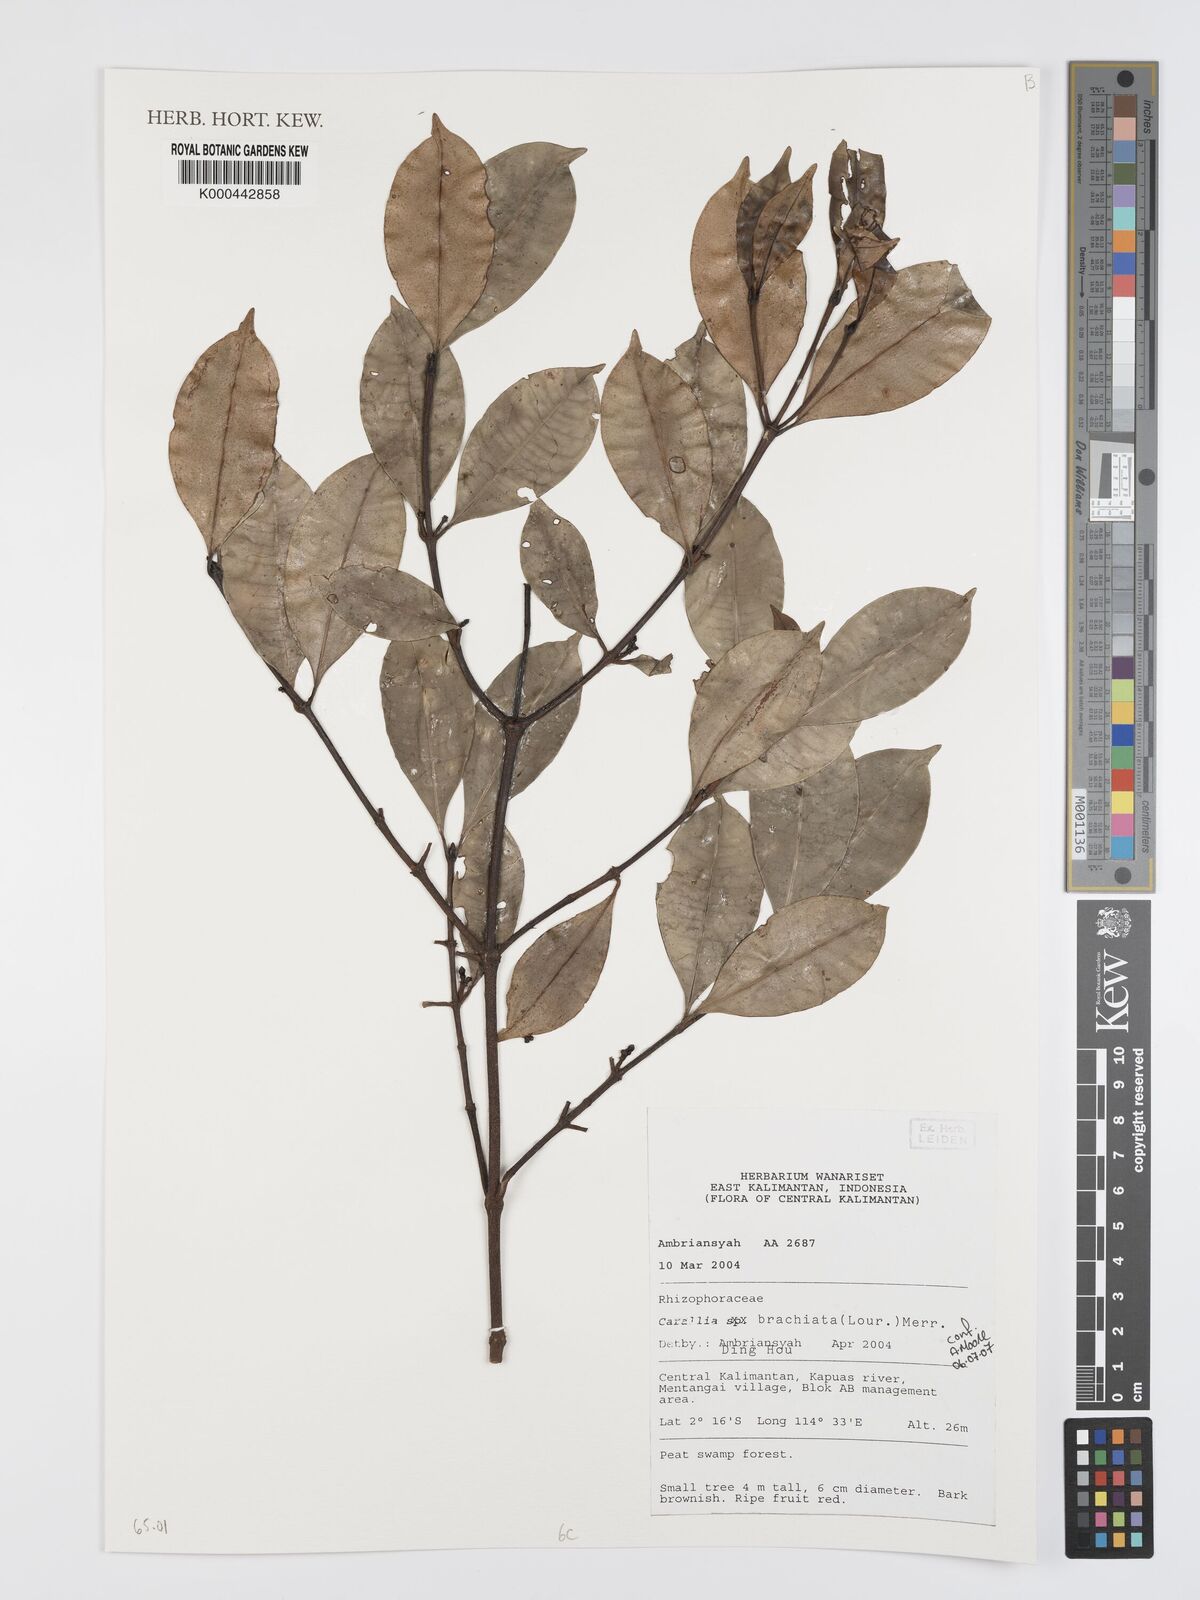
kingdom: Plantae
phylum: Tracheophyta
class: Magnoliopsida
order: Malpighiales
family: Rhizophoraceae
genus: Carallia
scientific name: Carallia brachiata
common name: Carallawood
